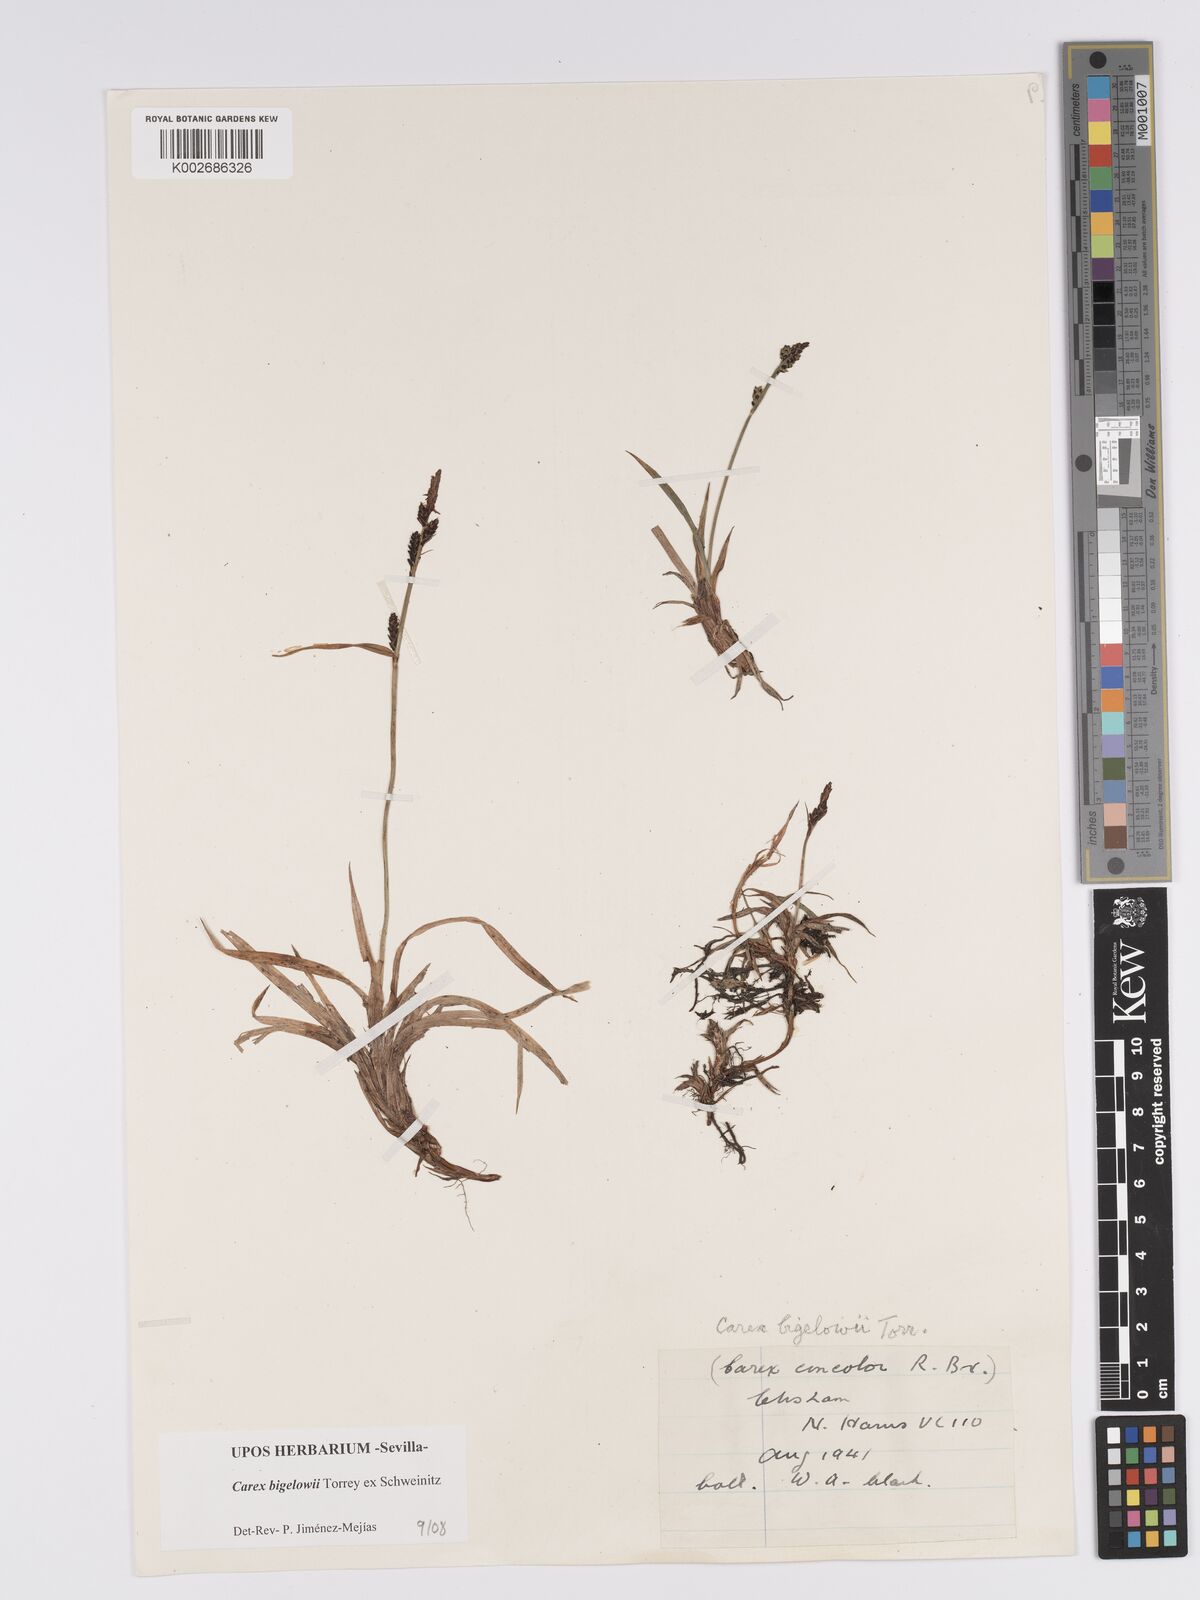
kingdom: Plantae
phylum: Tracheophyta
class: Liliopsida
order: Poales
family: Cyperaceae
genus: Carex
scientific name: Carex bigelowii
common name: Stiff sedge
